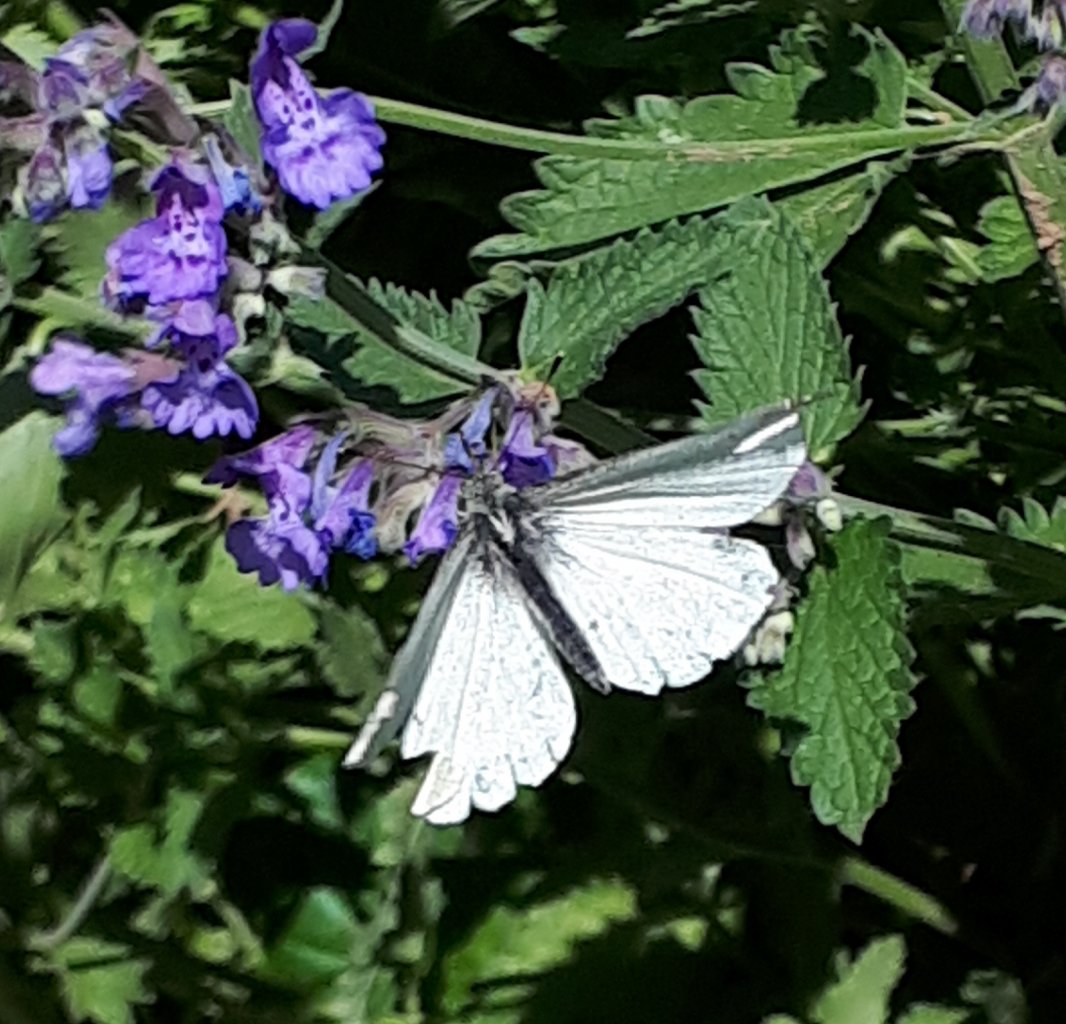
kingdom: Animalia
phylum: Arthropoda
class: Insecta
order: Lepidoptera
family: Pieridae
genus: Pieris
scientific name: Pieris rapae
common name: Cabbage White
